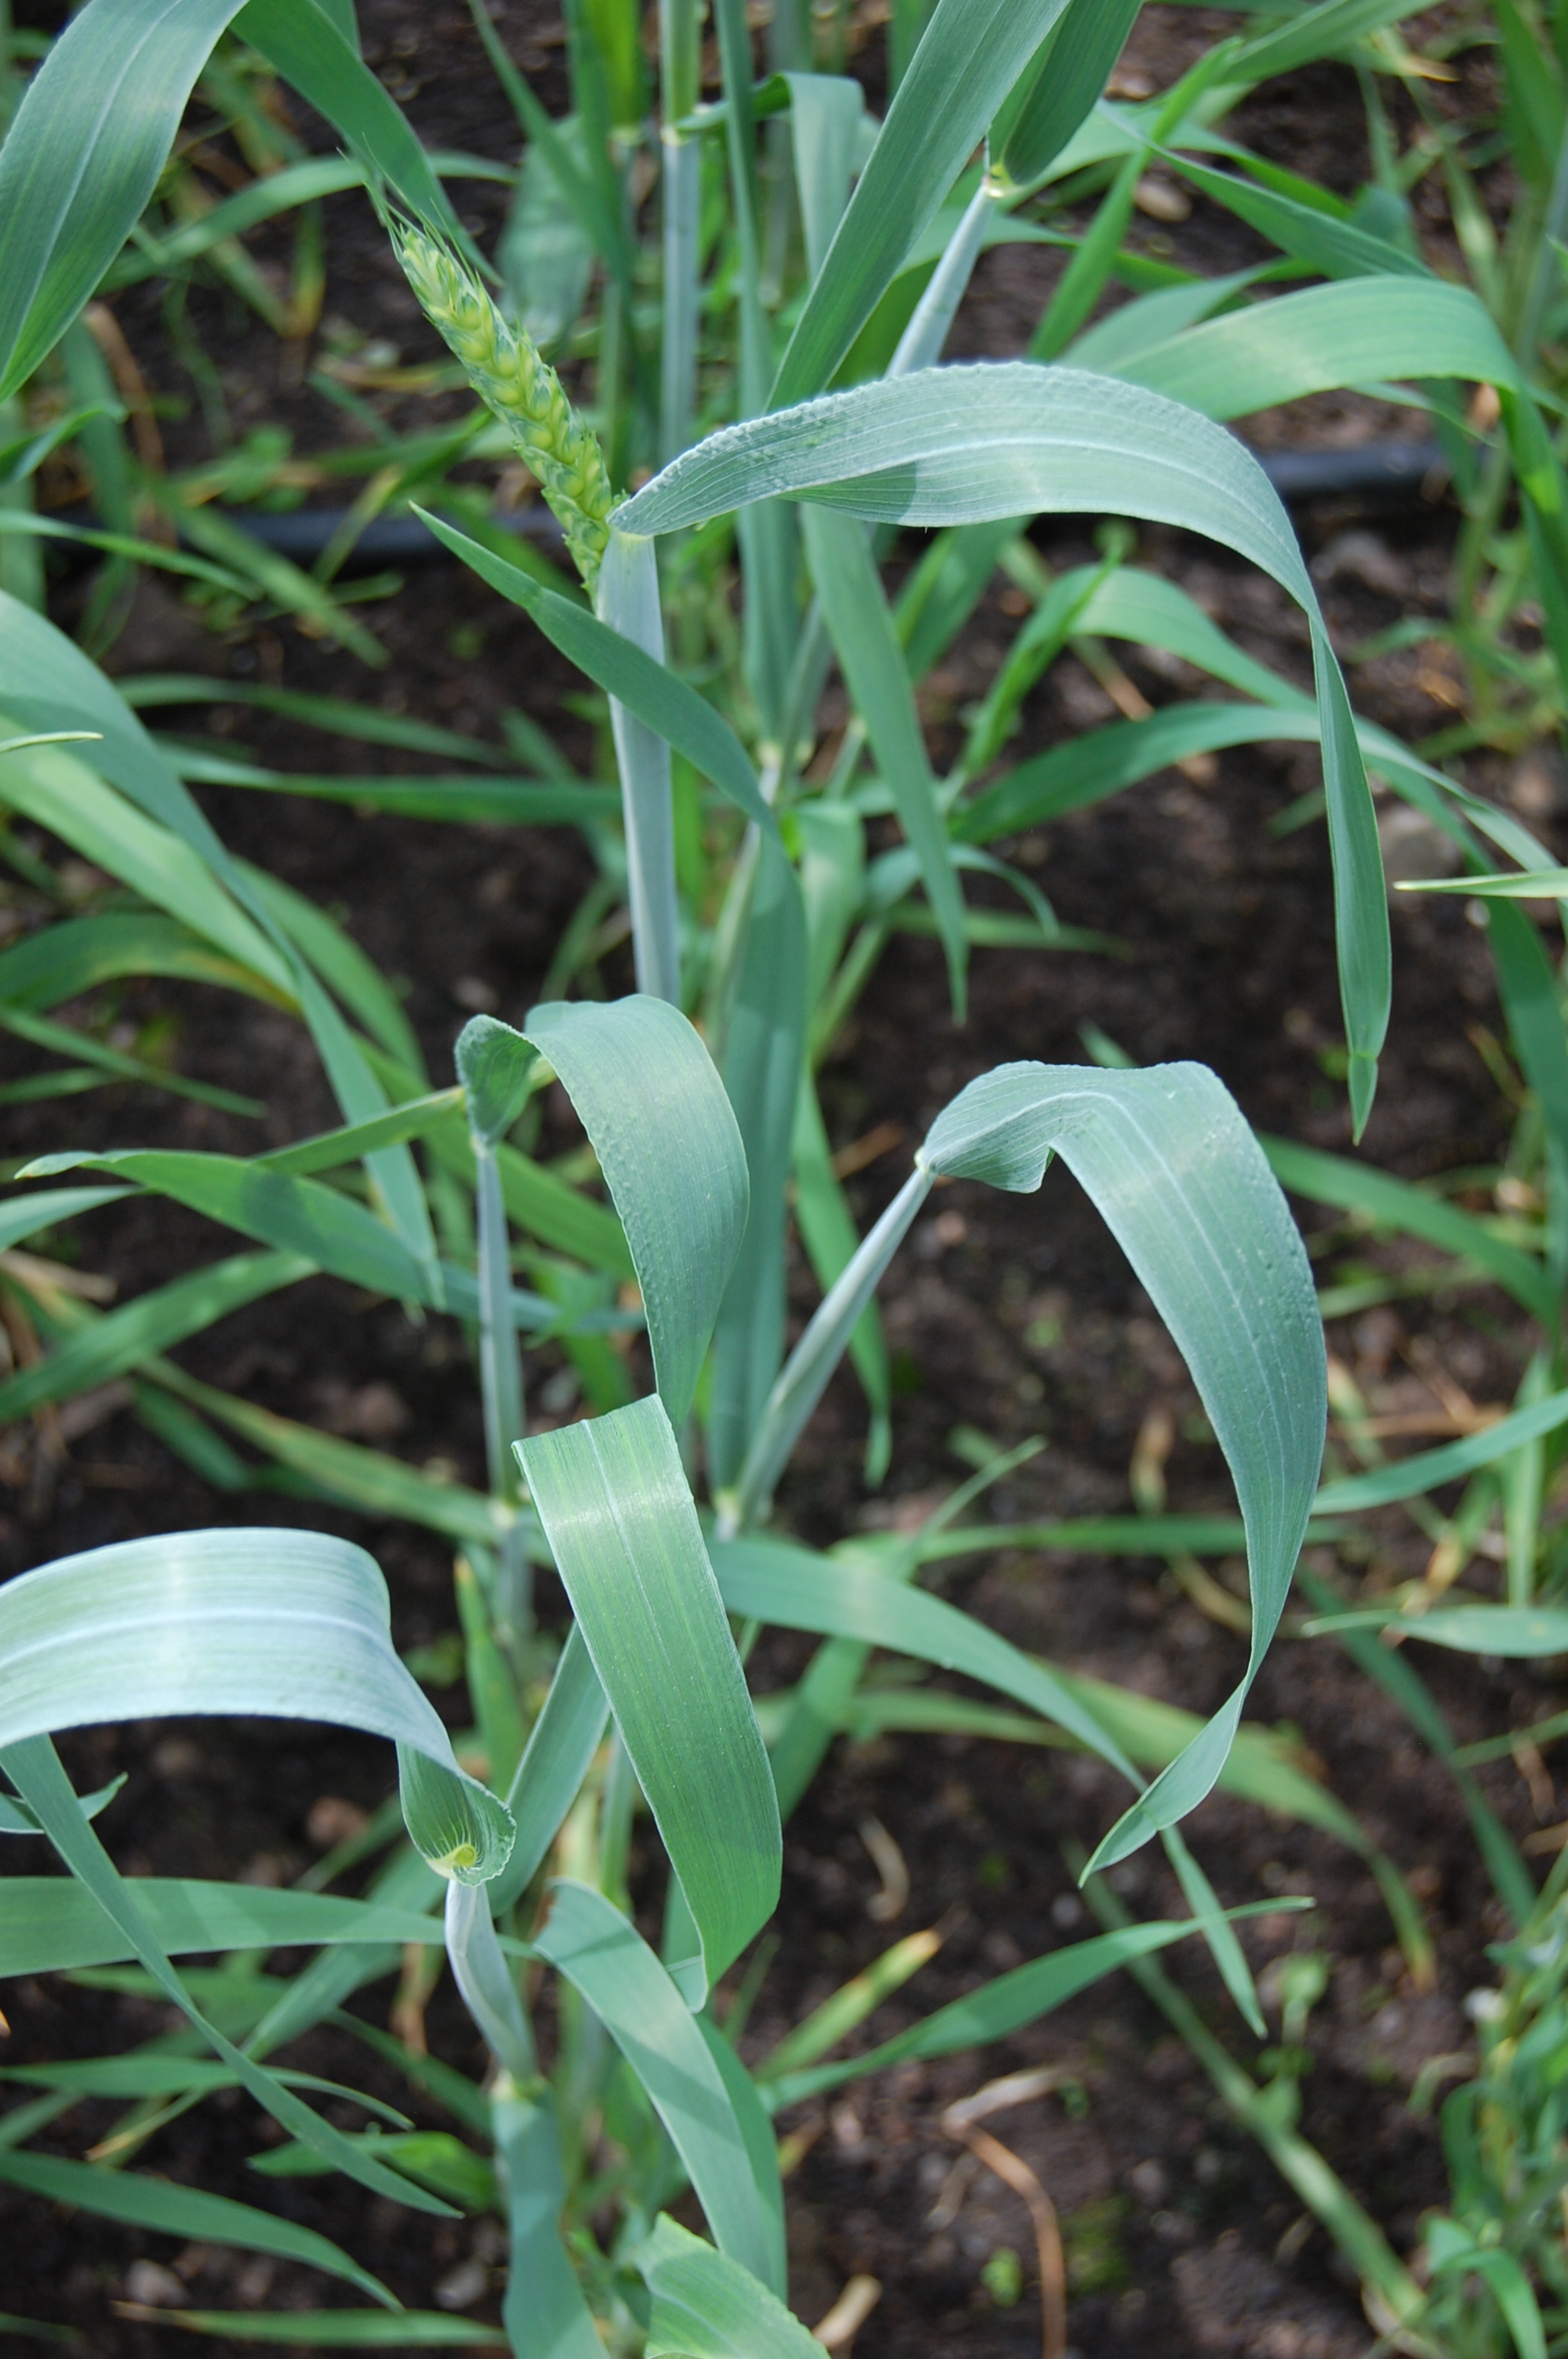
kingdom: Plantae
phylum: Tracheophyta
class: Liliopsida
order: Poales
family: Poaceae
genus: Triticum
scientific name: Triticum aestivum
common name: Common wheat
